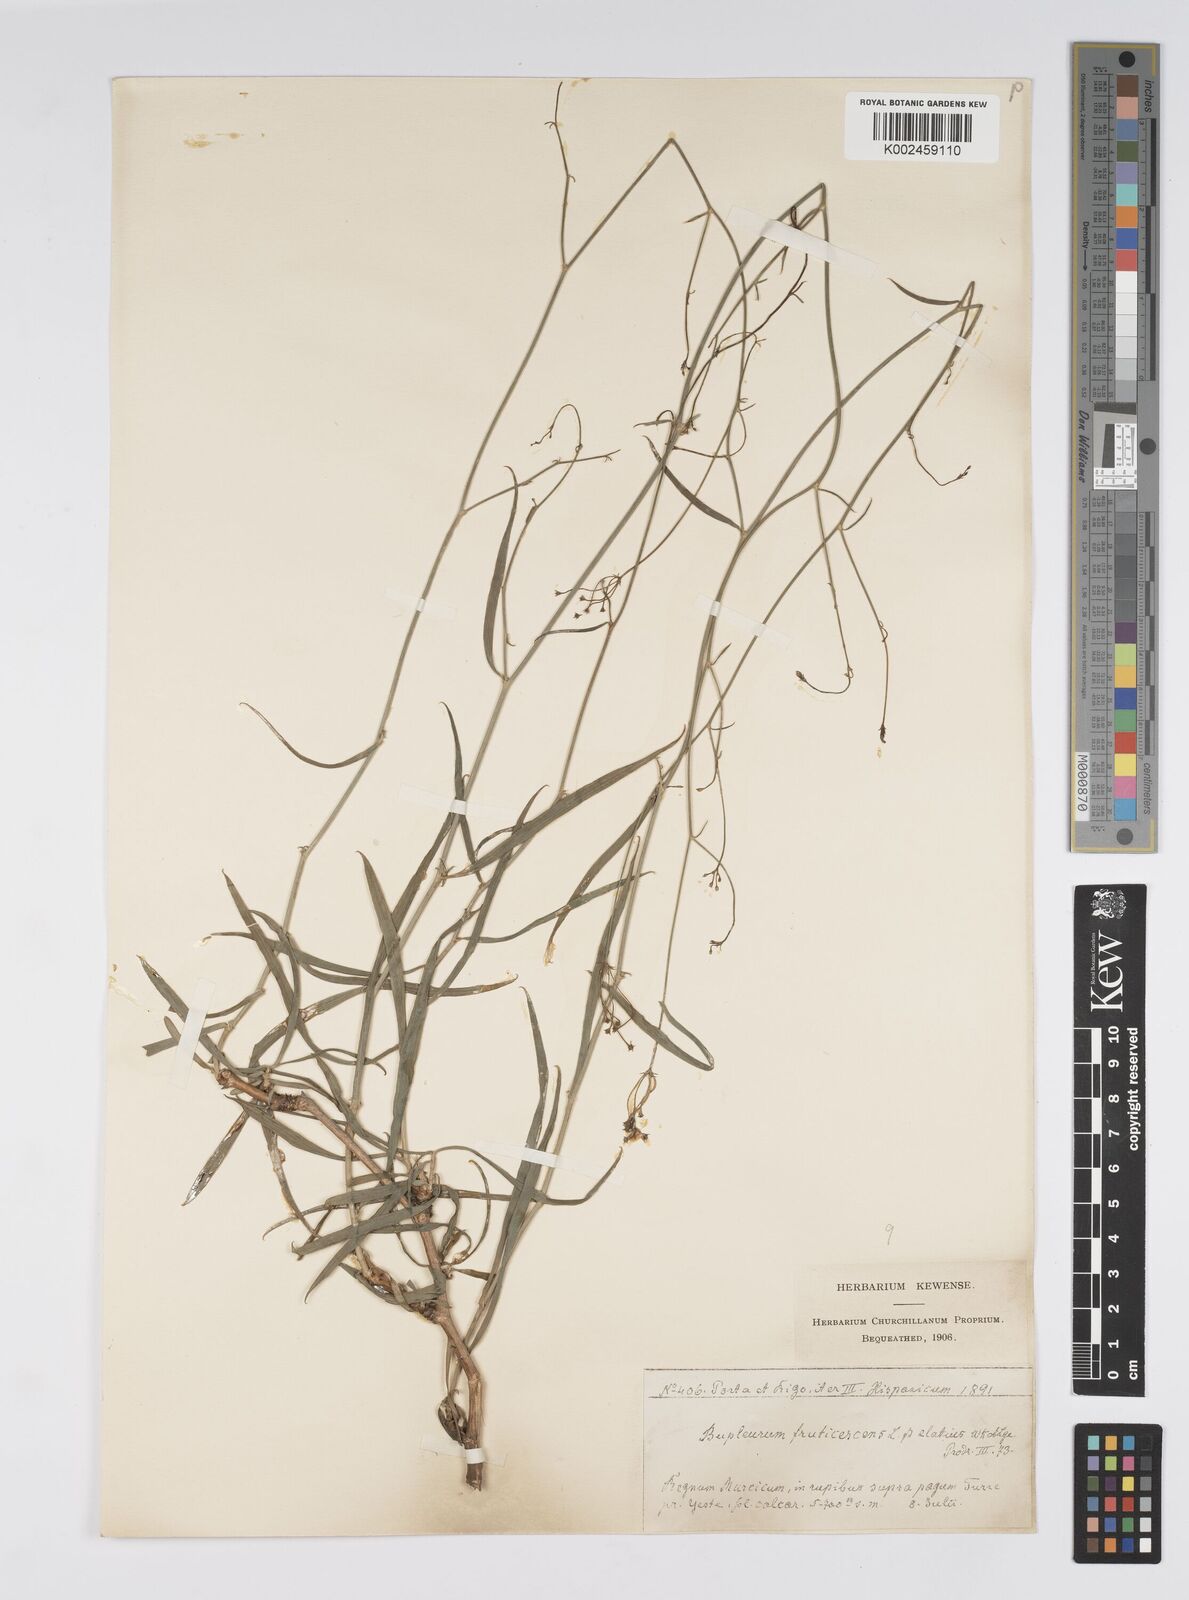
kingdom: Plantae
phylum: Tracheophyta
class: Magnoliopsida
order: Apiales
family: Apiaceae
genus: Anginon
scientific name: Anginon difforme
